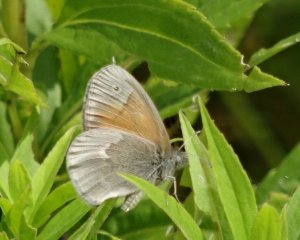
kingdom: Animalia
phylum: Arthropoda
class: Insecta
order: Lepidoptera
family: Nymphalidae
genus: Coenonympha
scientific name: Coenonympha tullia
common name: Large Heath
